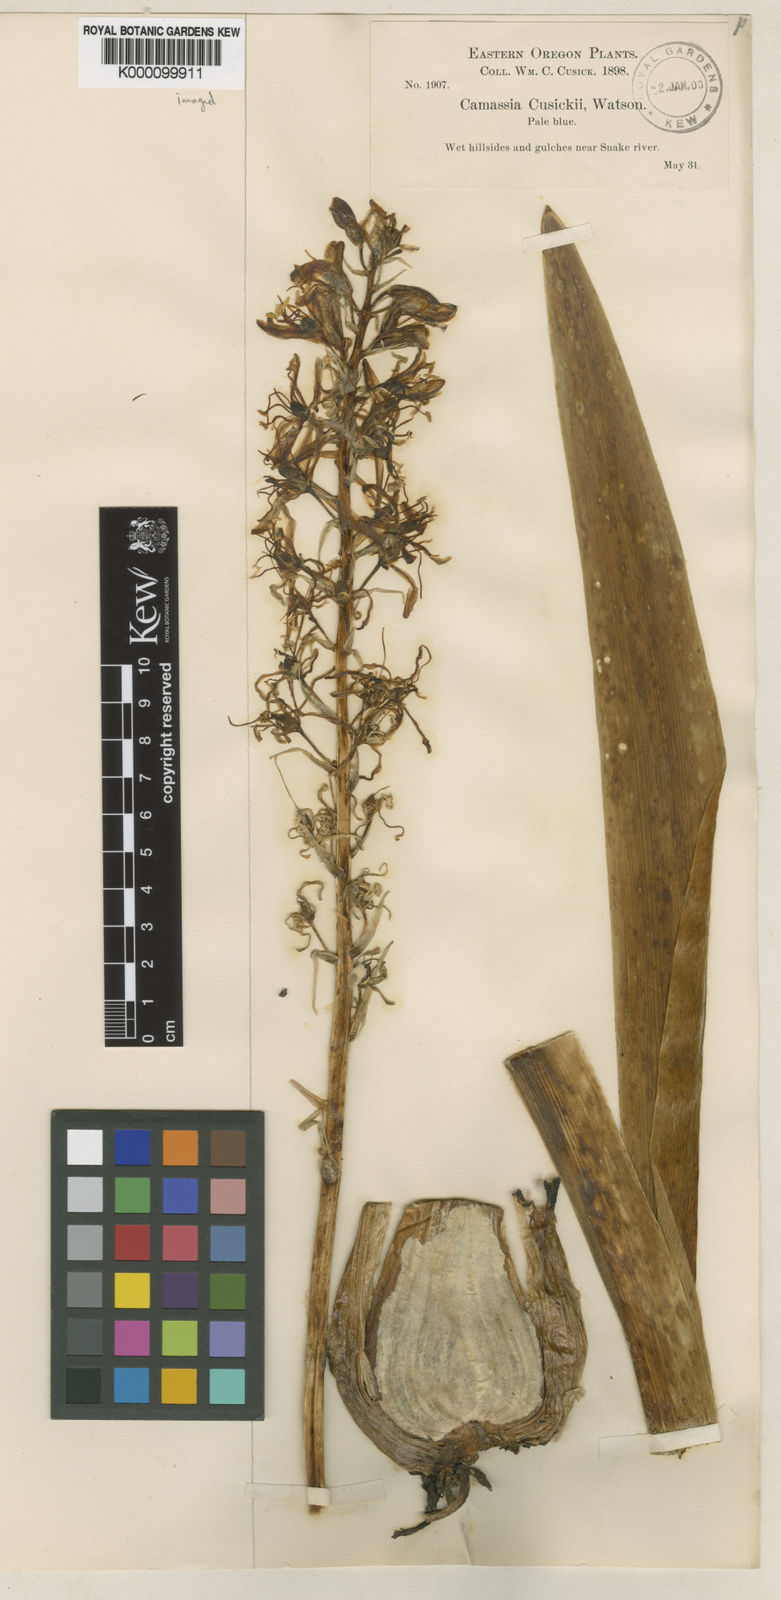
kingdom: Plantae
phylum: Tracheophyta
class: Liliopsida
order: Asparagales
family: Asparagaceae
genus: Camassia
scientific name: Camassia cusickii
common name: Cusick camas
